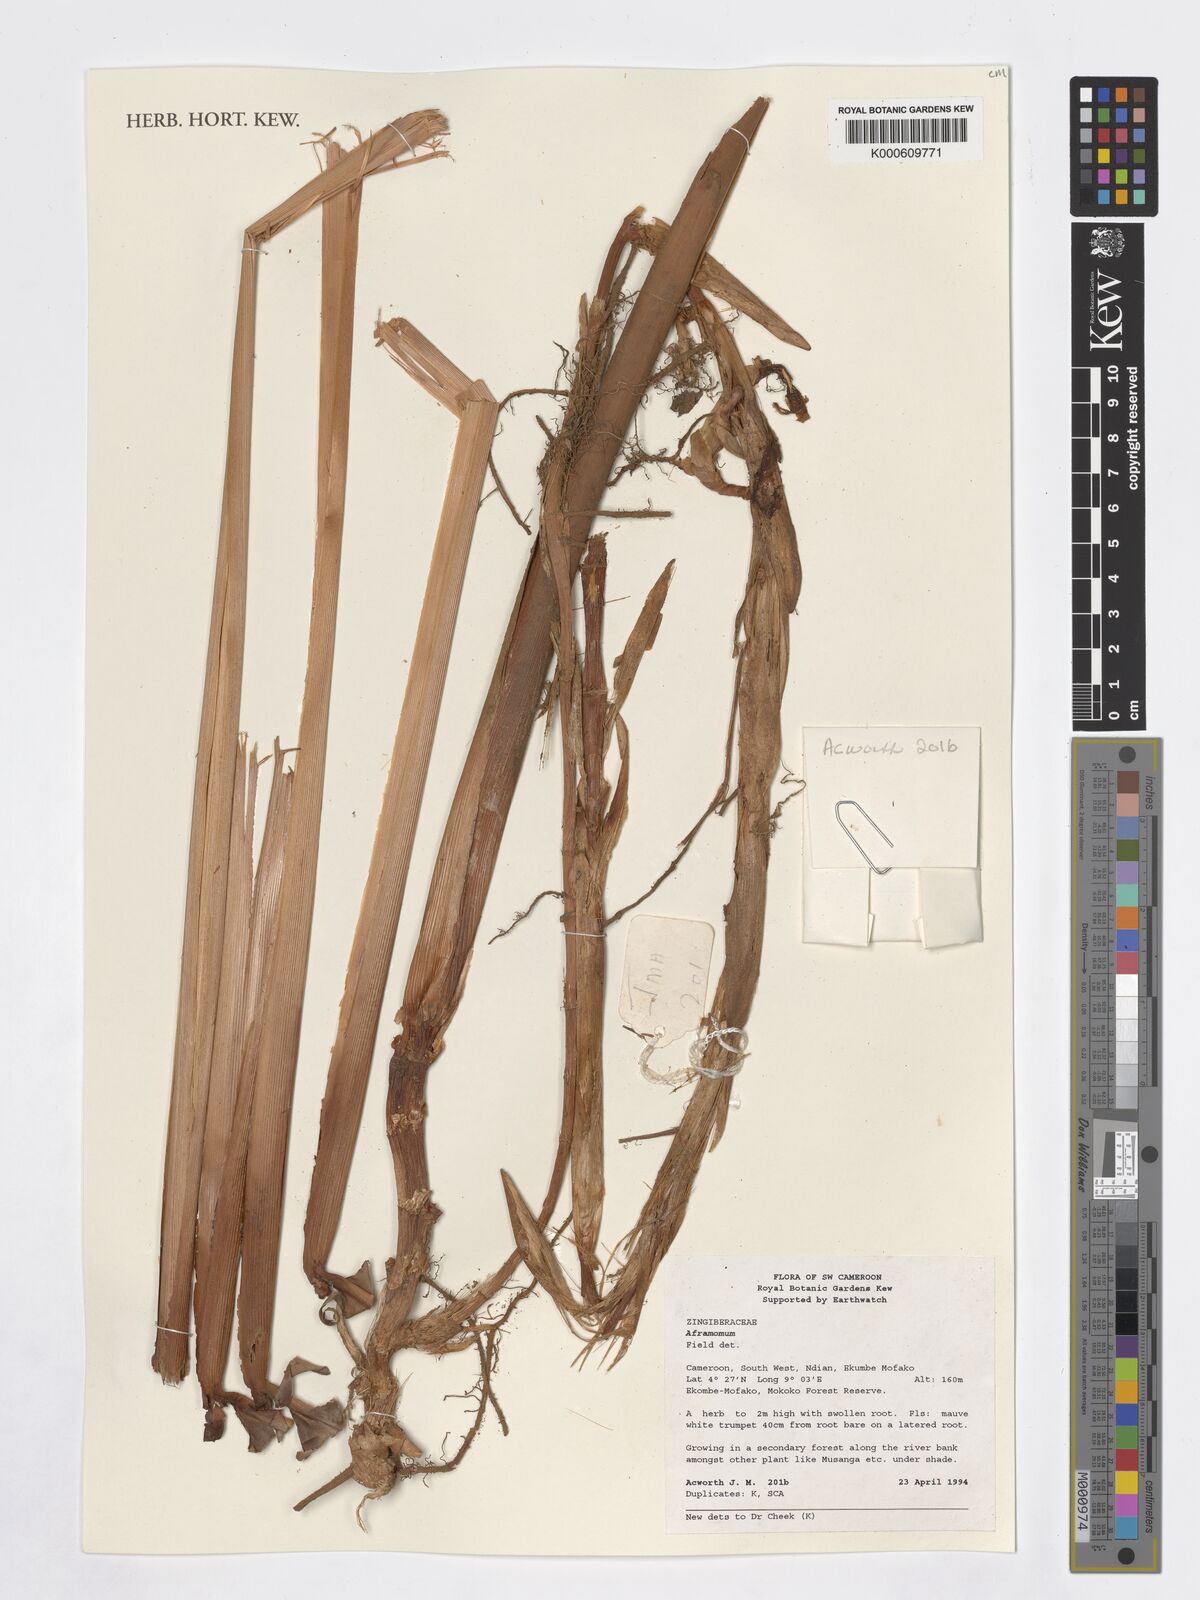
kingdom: Plantae
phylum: Tracheophyta
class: Liliopsida
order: Zingiberales
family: Zingiberaceae
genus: Aframomum
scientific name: Aframomum
